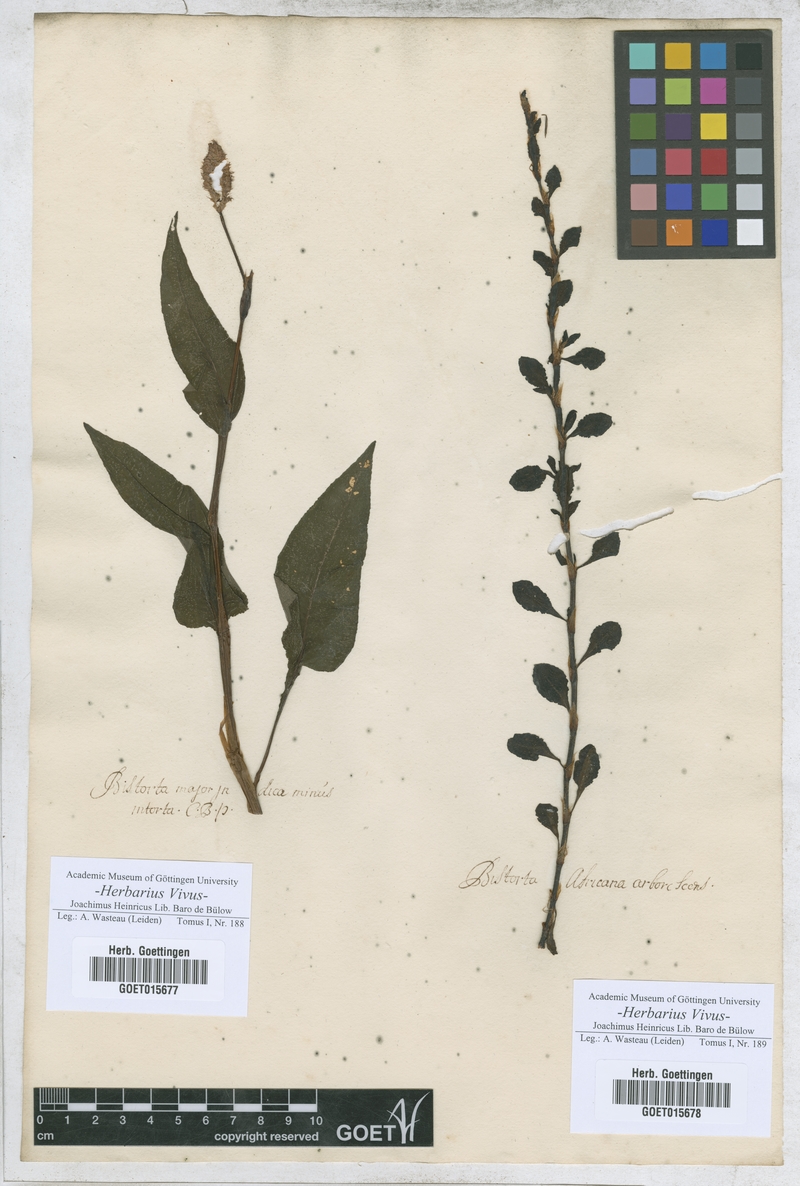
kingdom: Plantae
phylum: Tracheophyta
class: Magnoliopsida
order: Caryophyllales
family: Polygonaceae
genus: Bistorta
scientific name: Bistorta officinalis
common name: Common bistort
